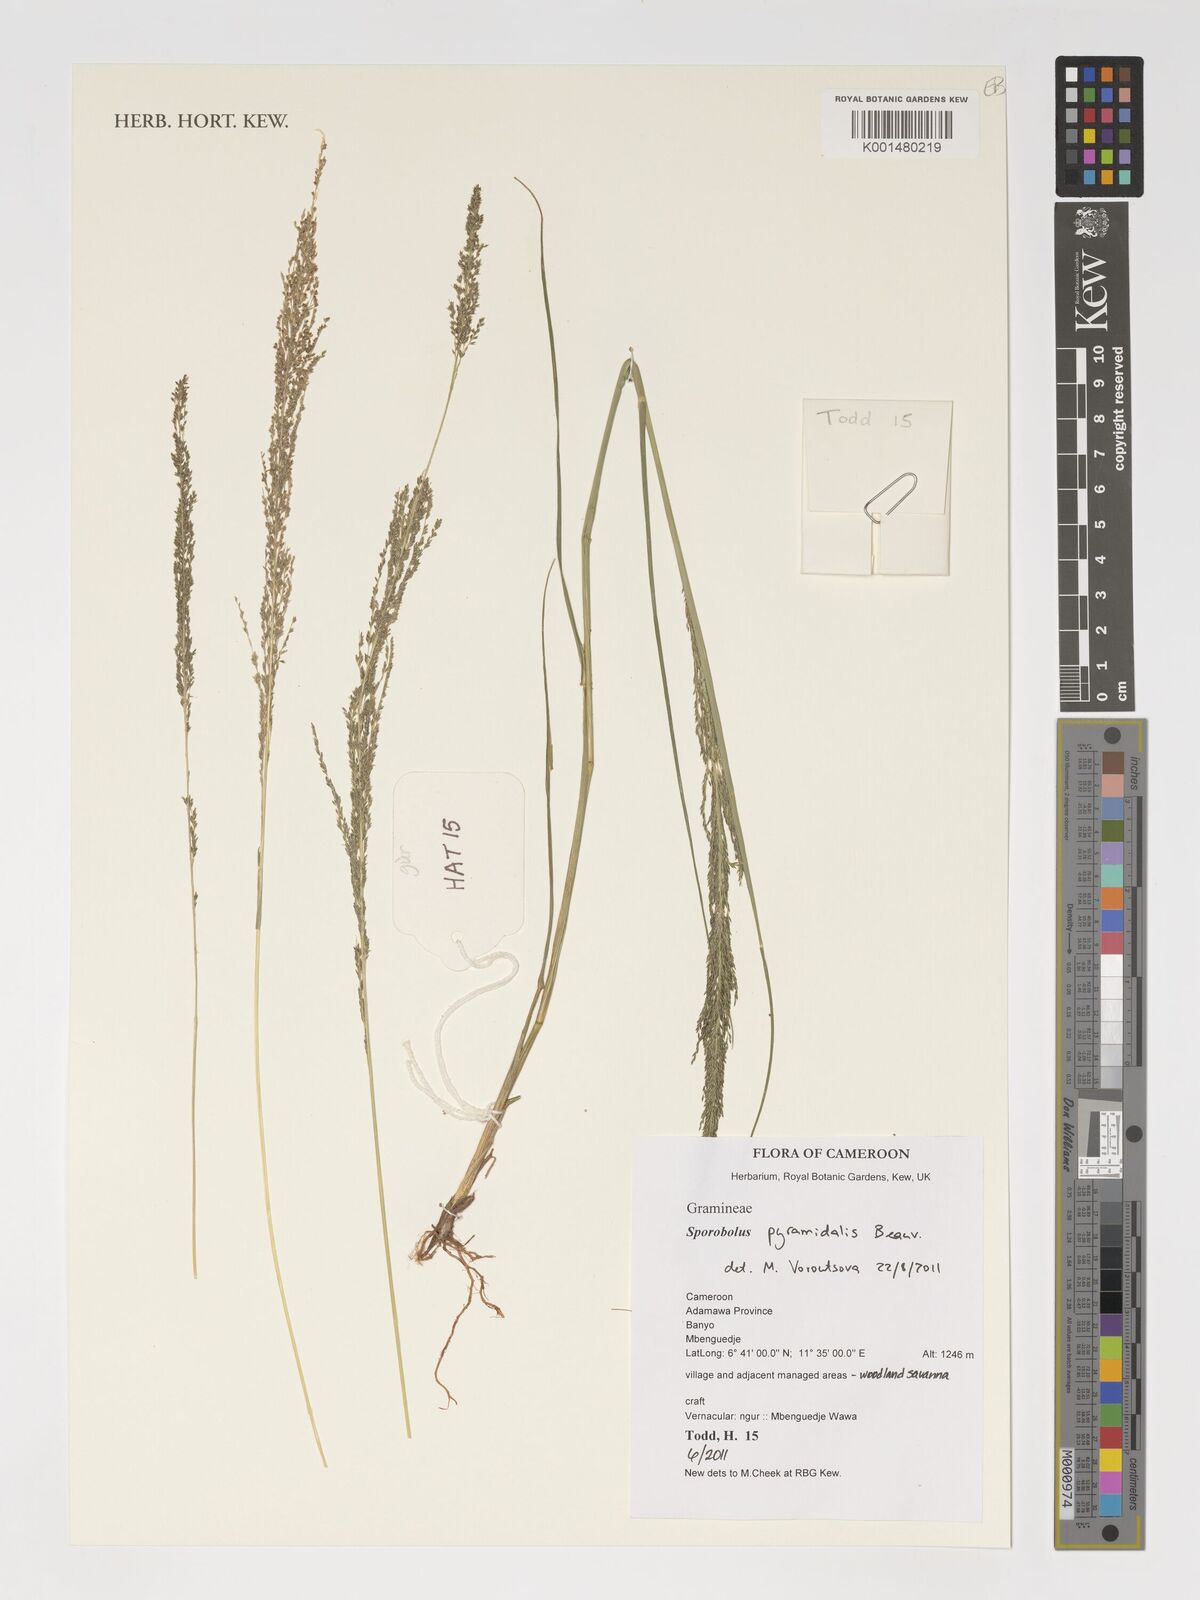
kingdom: Plantae
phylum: Tracheophyta
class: Liliopsida
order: Poales
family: Poaceae
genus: Sporobolus
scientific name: Sporobolus pyramidalis
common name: West indian dropseed
